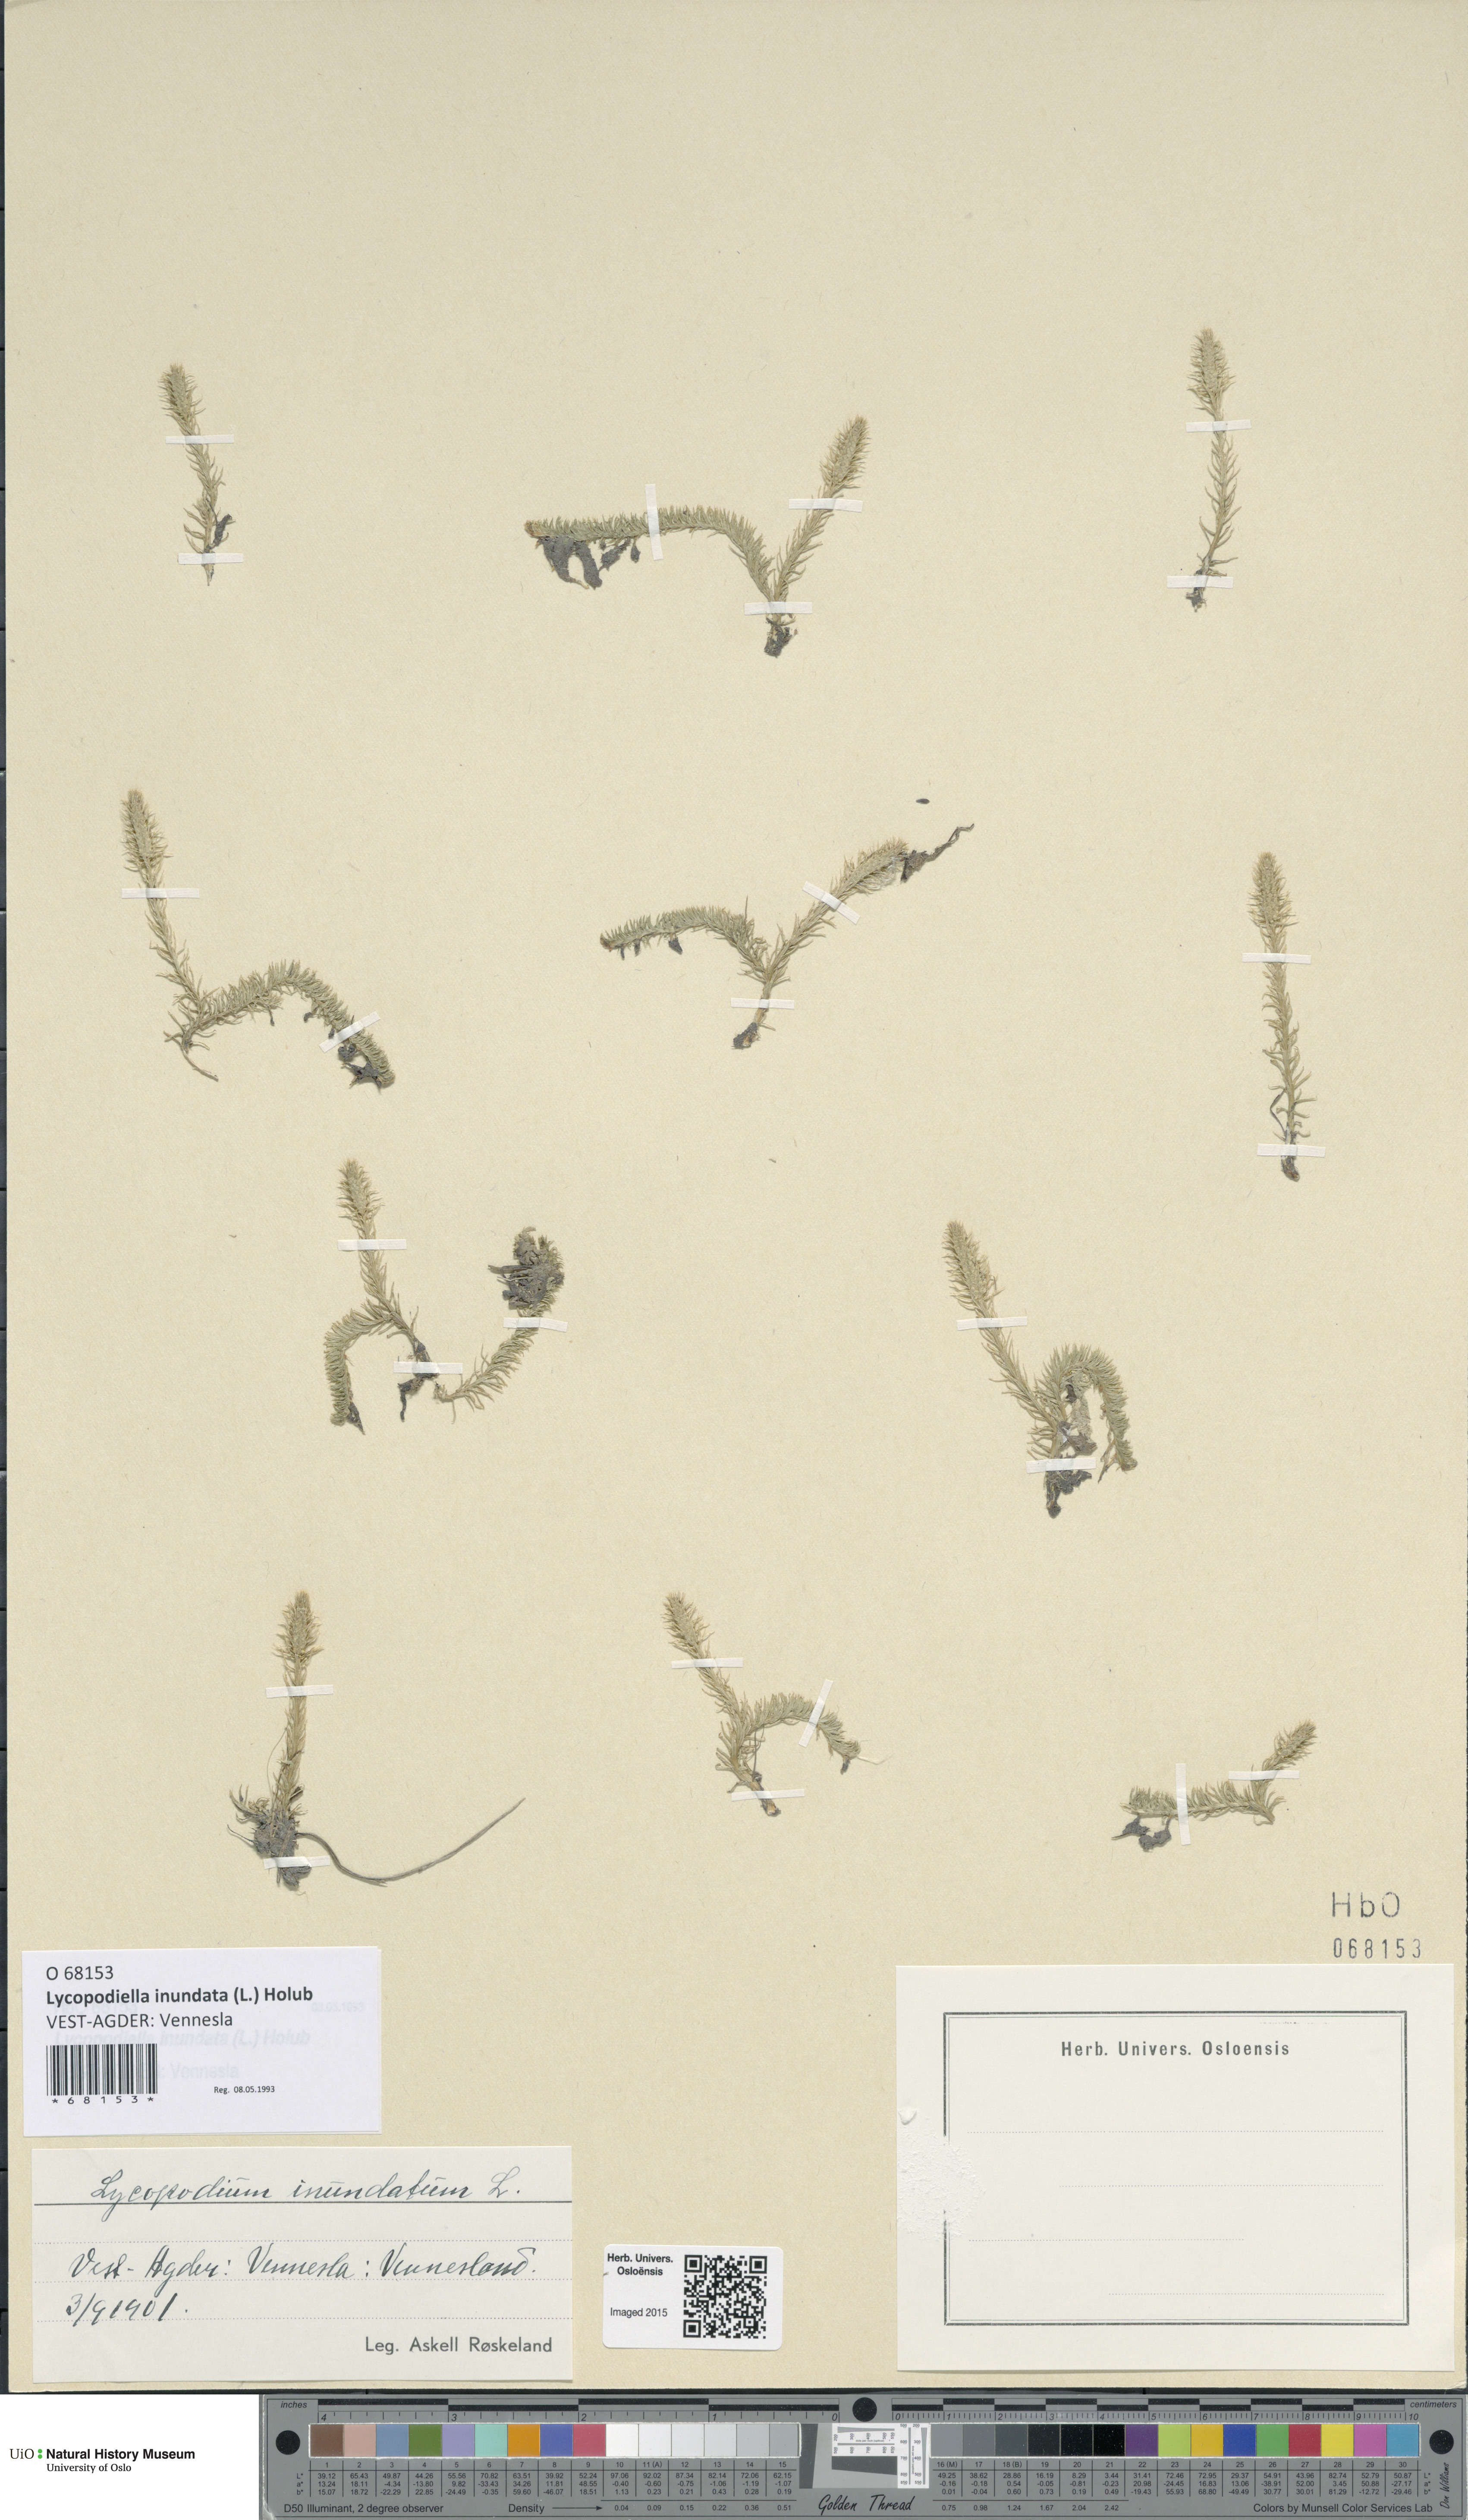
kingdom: Plantae
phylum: Tracheophyta
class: Lycopodiopsida
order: Lycopodiales
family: Lycopodiaceae
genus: Lycopodiella
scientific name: Lycopodiella inundata
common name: Marsh clubmoss
